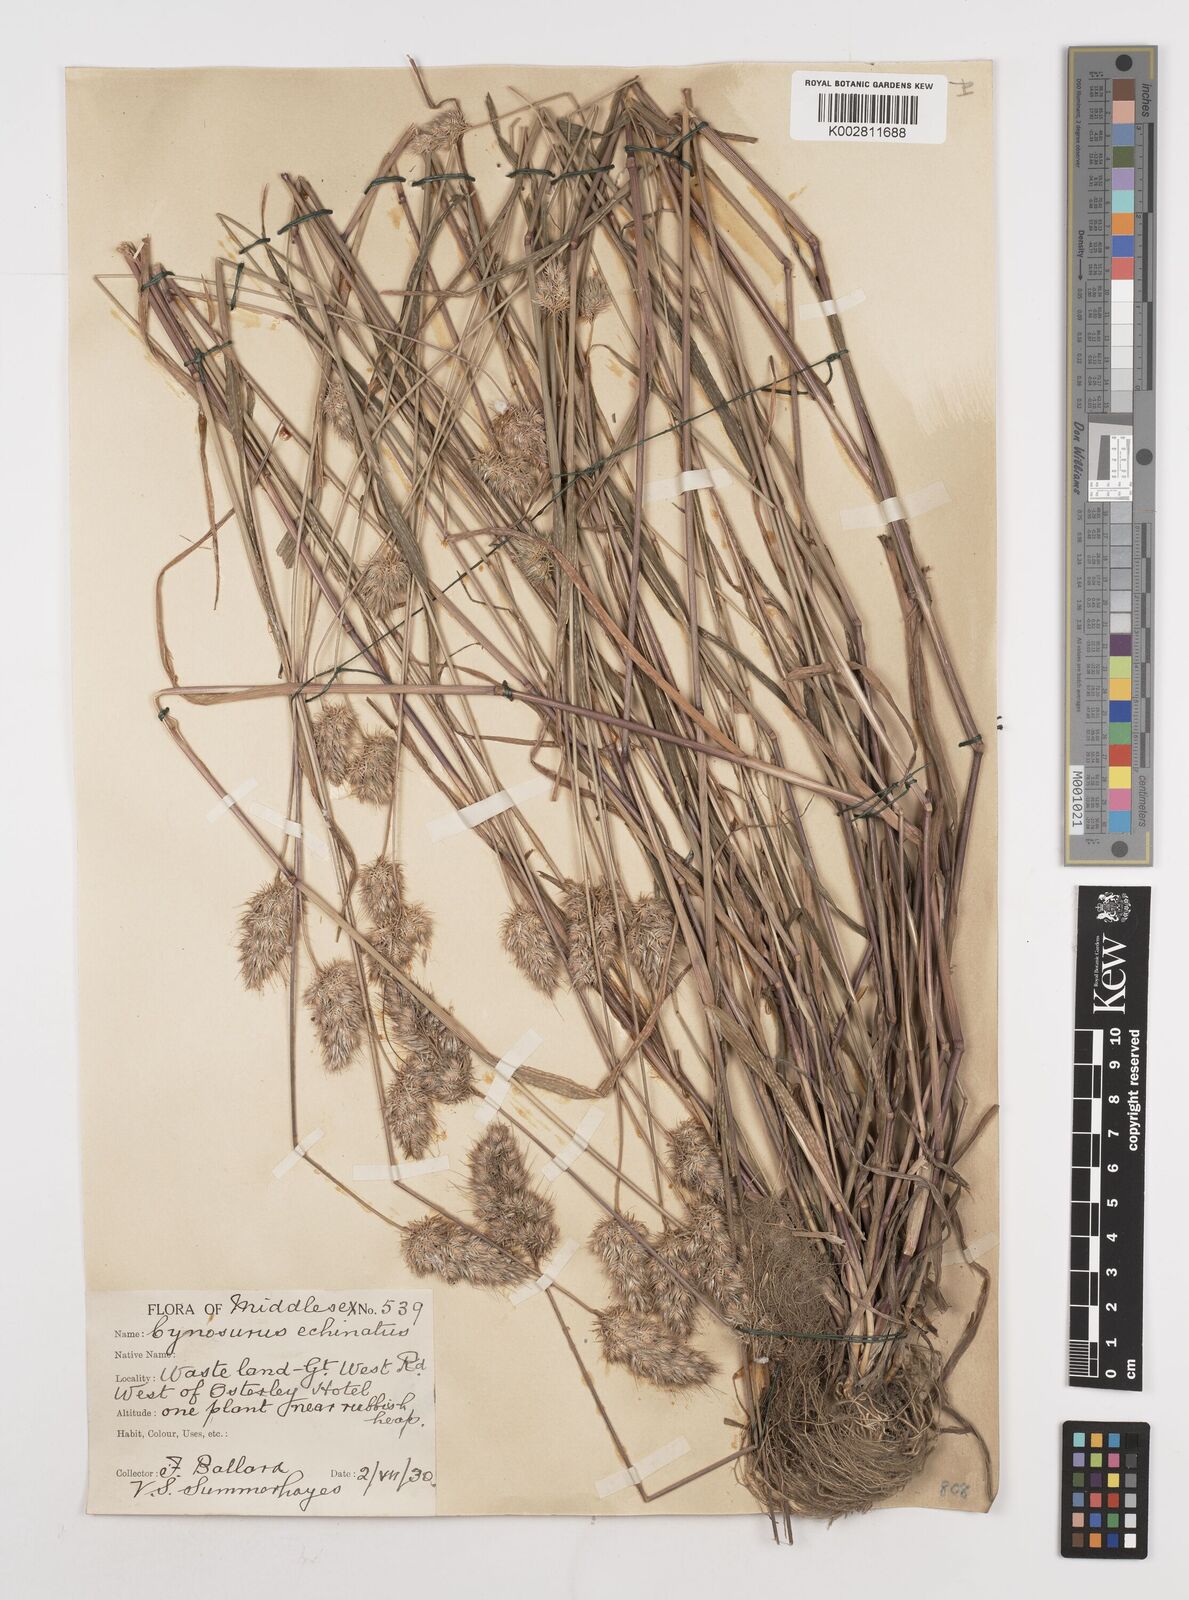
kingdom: Plantae
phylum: Tracheophyta
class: Liliopsida
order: Poales
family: Poaceae
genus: Cynosurus
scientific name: Cynosurus echinatus
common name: Rough dog's-tail
